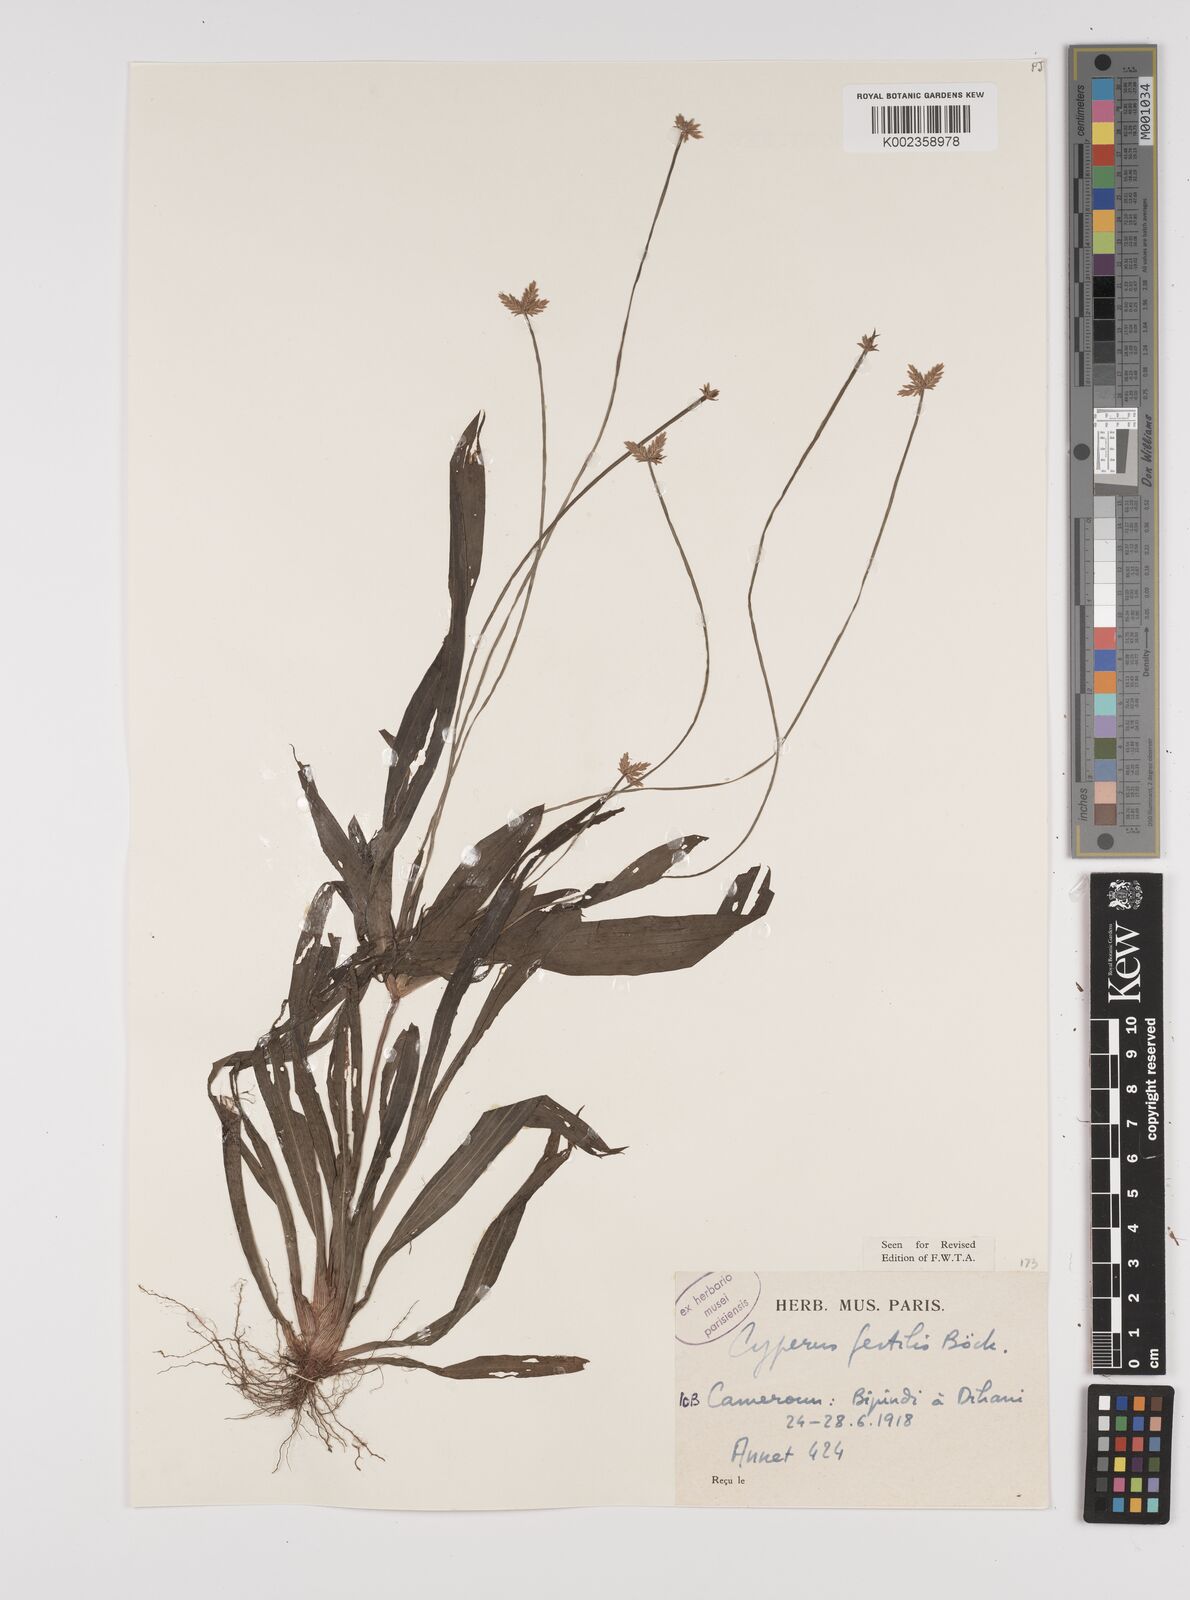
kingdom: Plantae
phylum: Tracheophyta
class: Liliopsida
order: Poales
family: Cyperaceae
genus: Cyperus
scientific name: Cyperus fertilis
